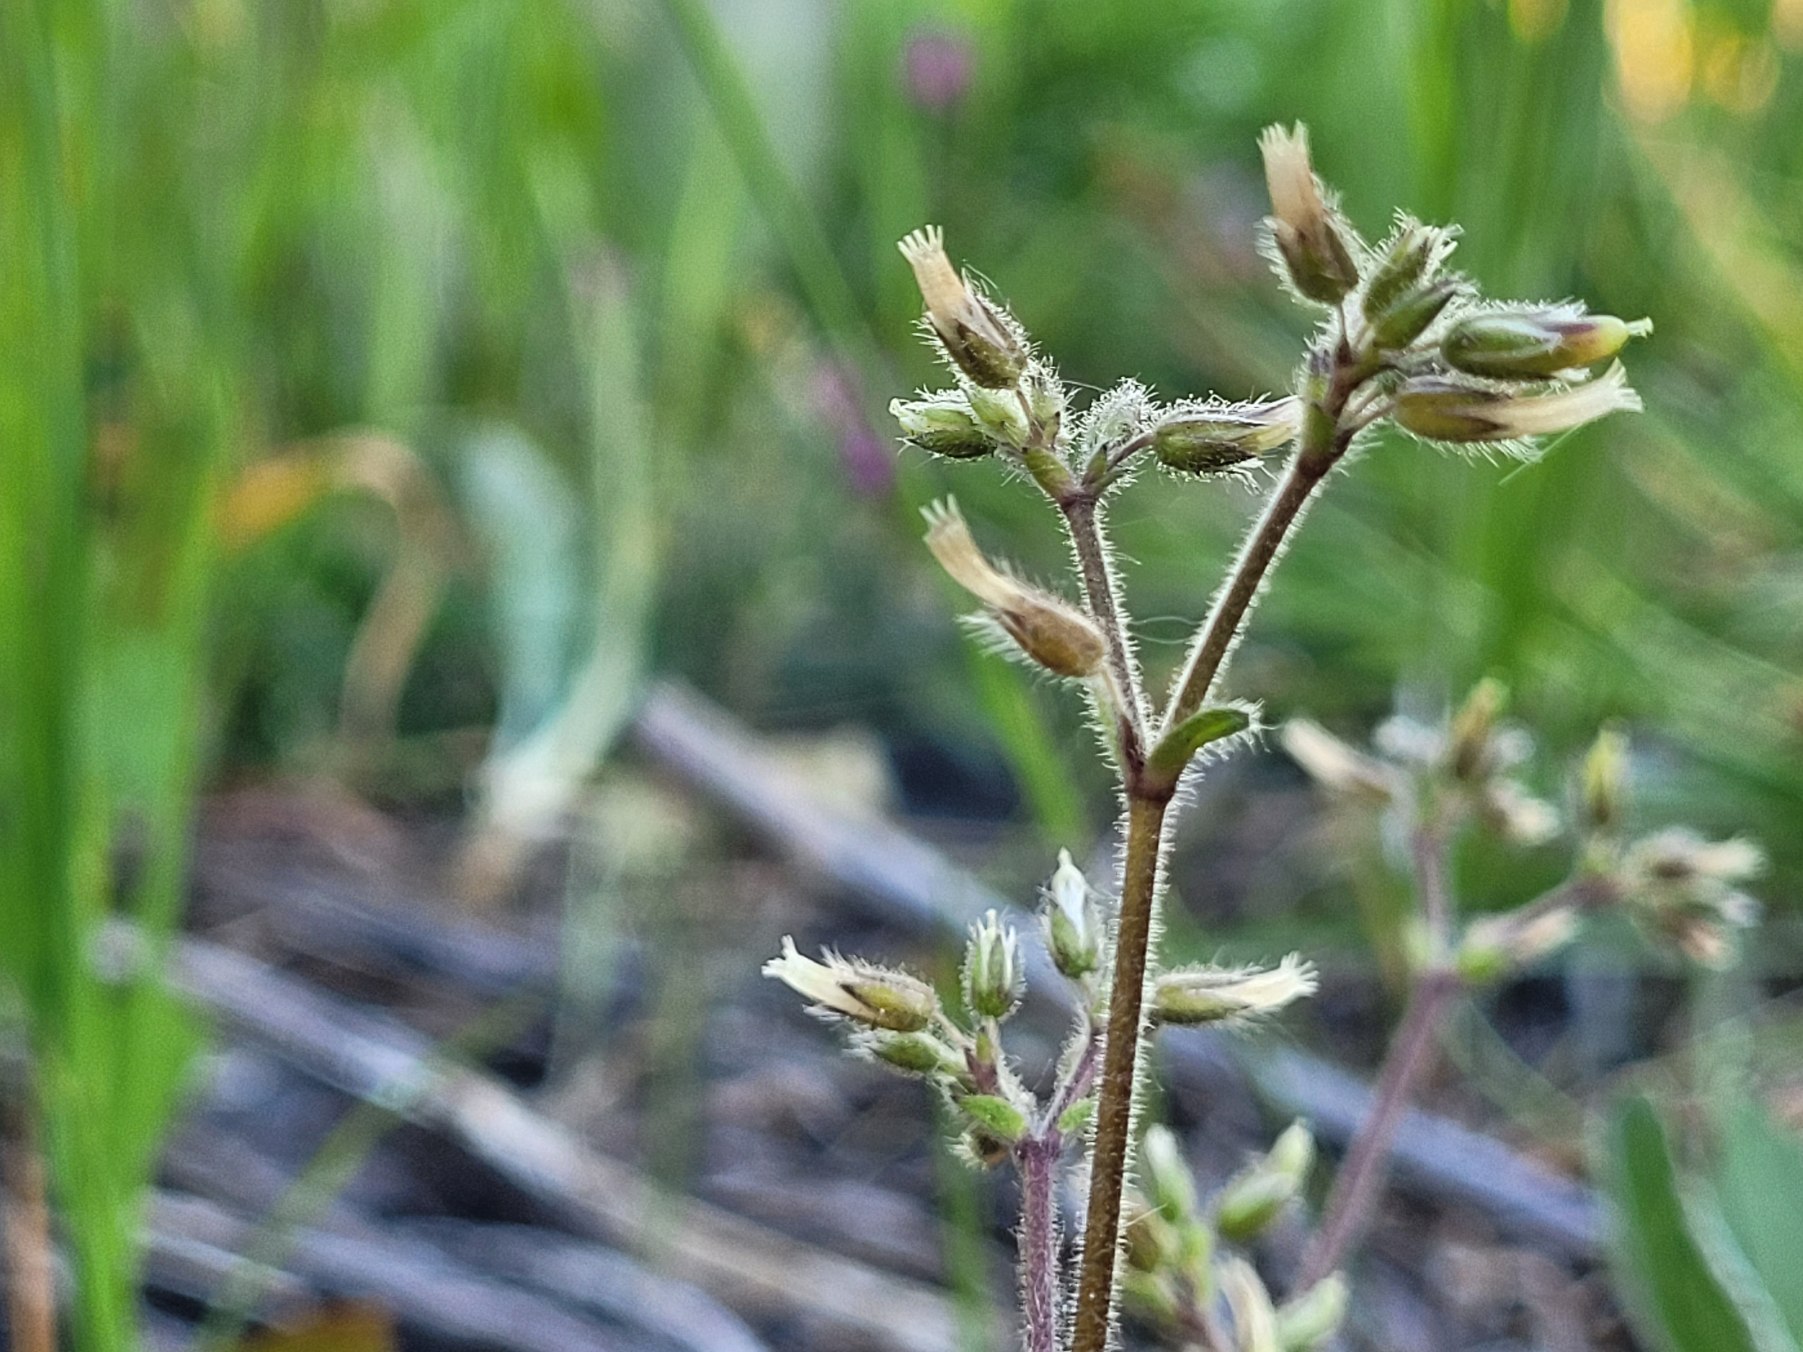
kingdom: Plantae
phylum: Tracheophyta
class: Magnoliopsida
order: Caryophyllales
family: Caryophyllaceae
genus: Cerastium
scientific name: Cerastium glomeratum
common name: Opret hønsetarm
